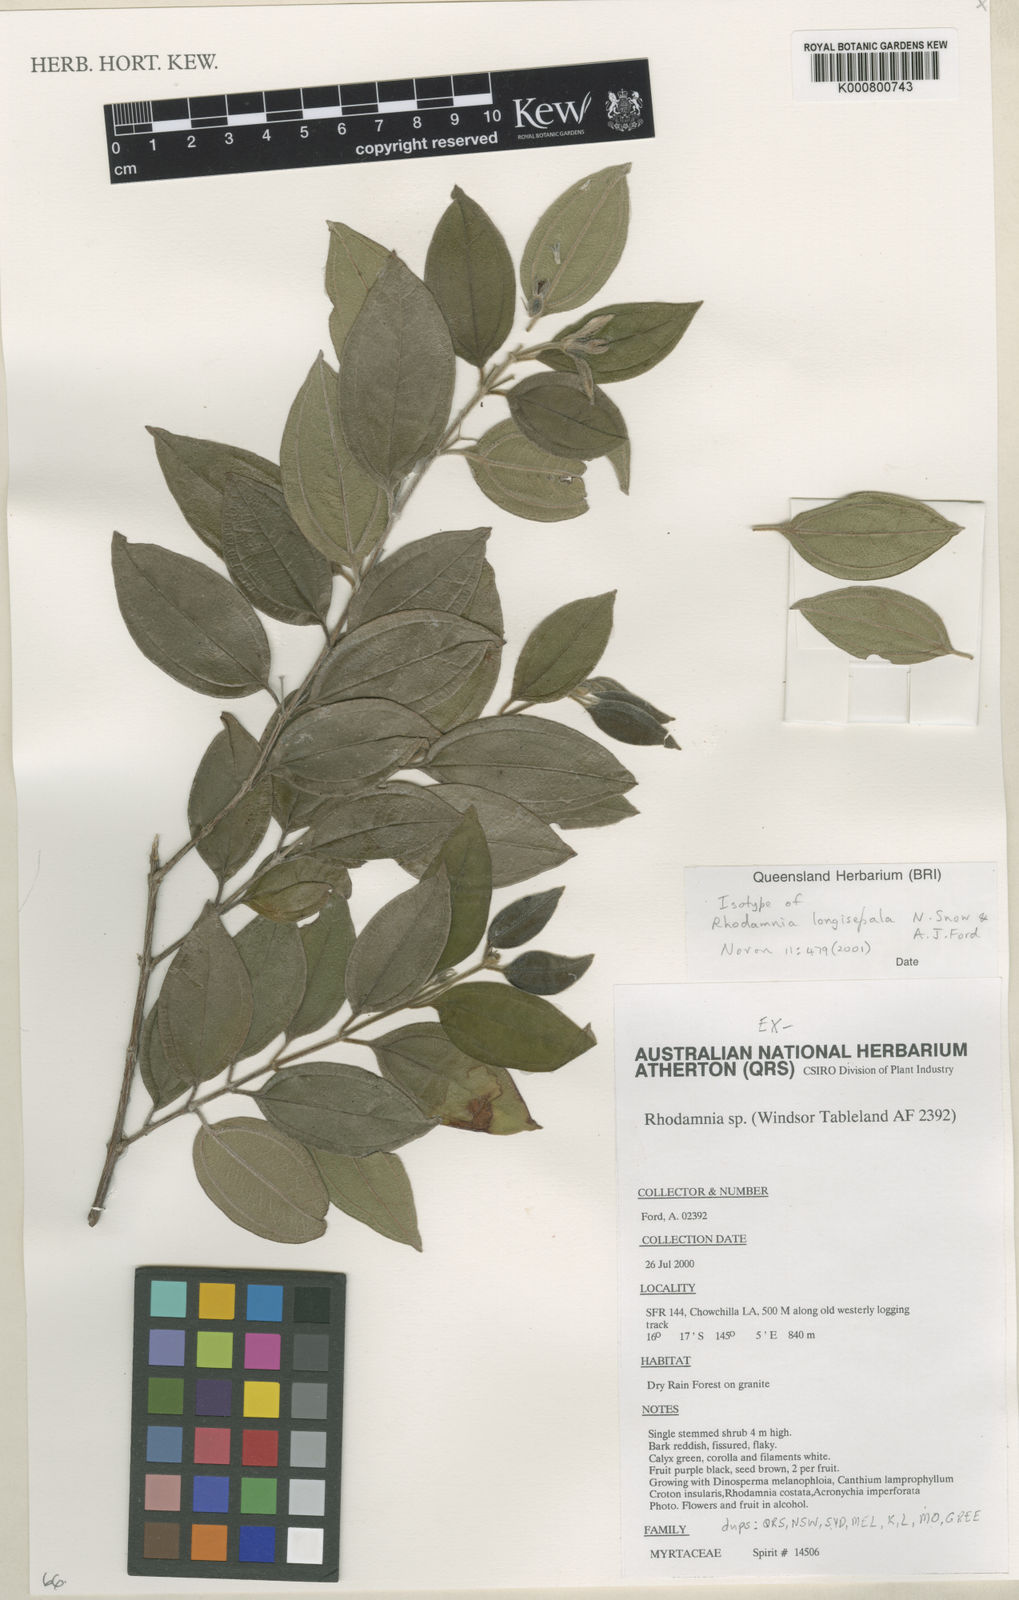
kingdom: Plantae
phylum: Tracheophyta
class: Magnoliopsida
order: Myrtales
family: Myrtaceae
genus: Rhodamnia
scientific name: Rhodamnia longisepala
